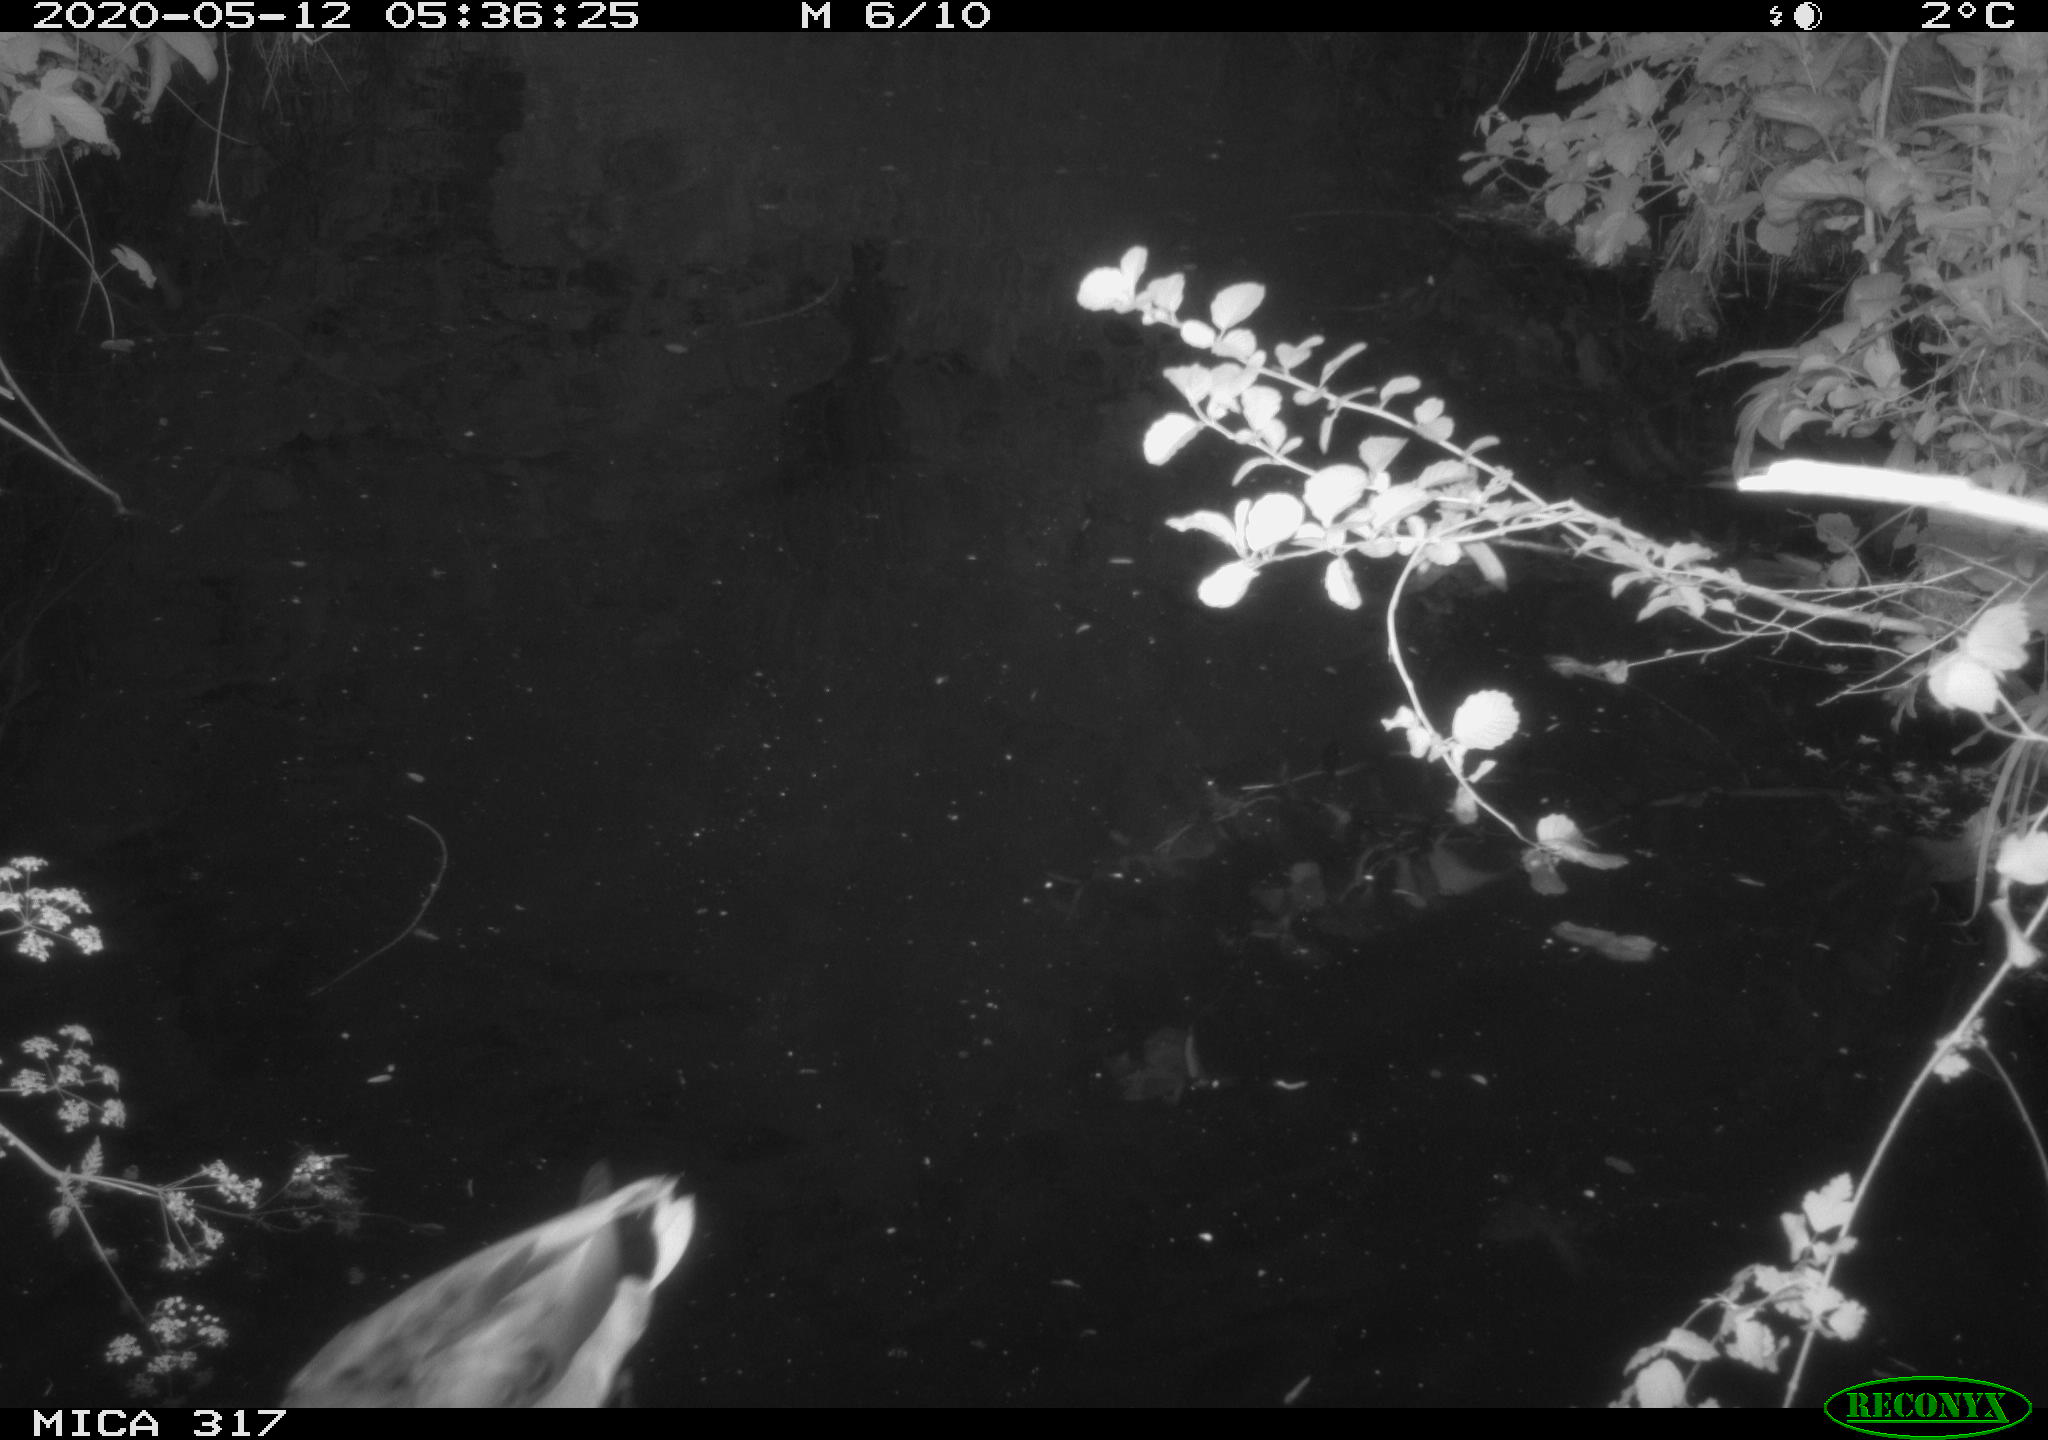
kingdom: Animalia
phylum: Chordata
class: Aves
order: Gruiformes
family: Rallidae
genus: Gallinula
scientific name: Gallinula chloropus
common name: Common moorhen
